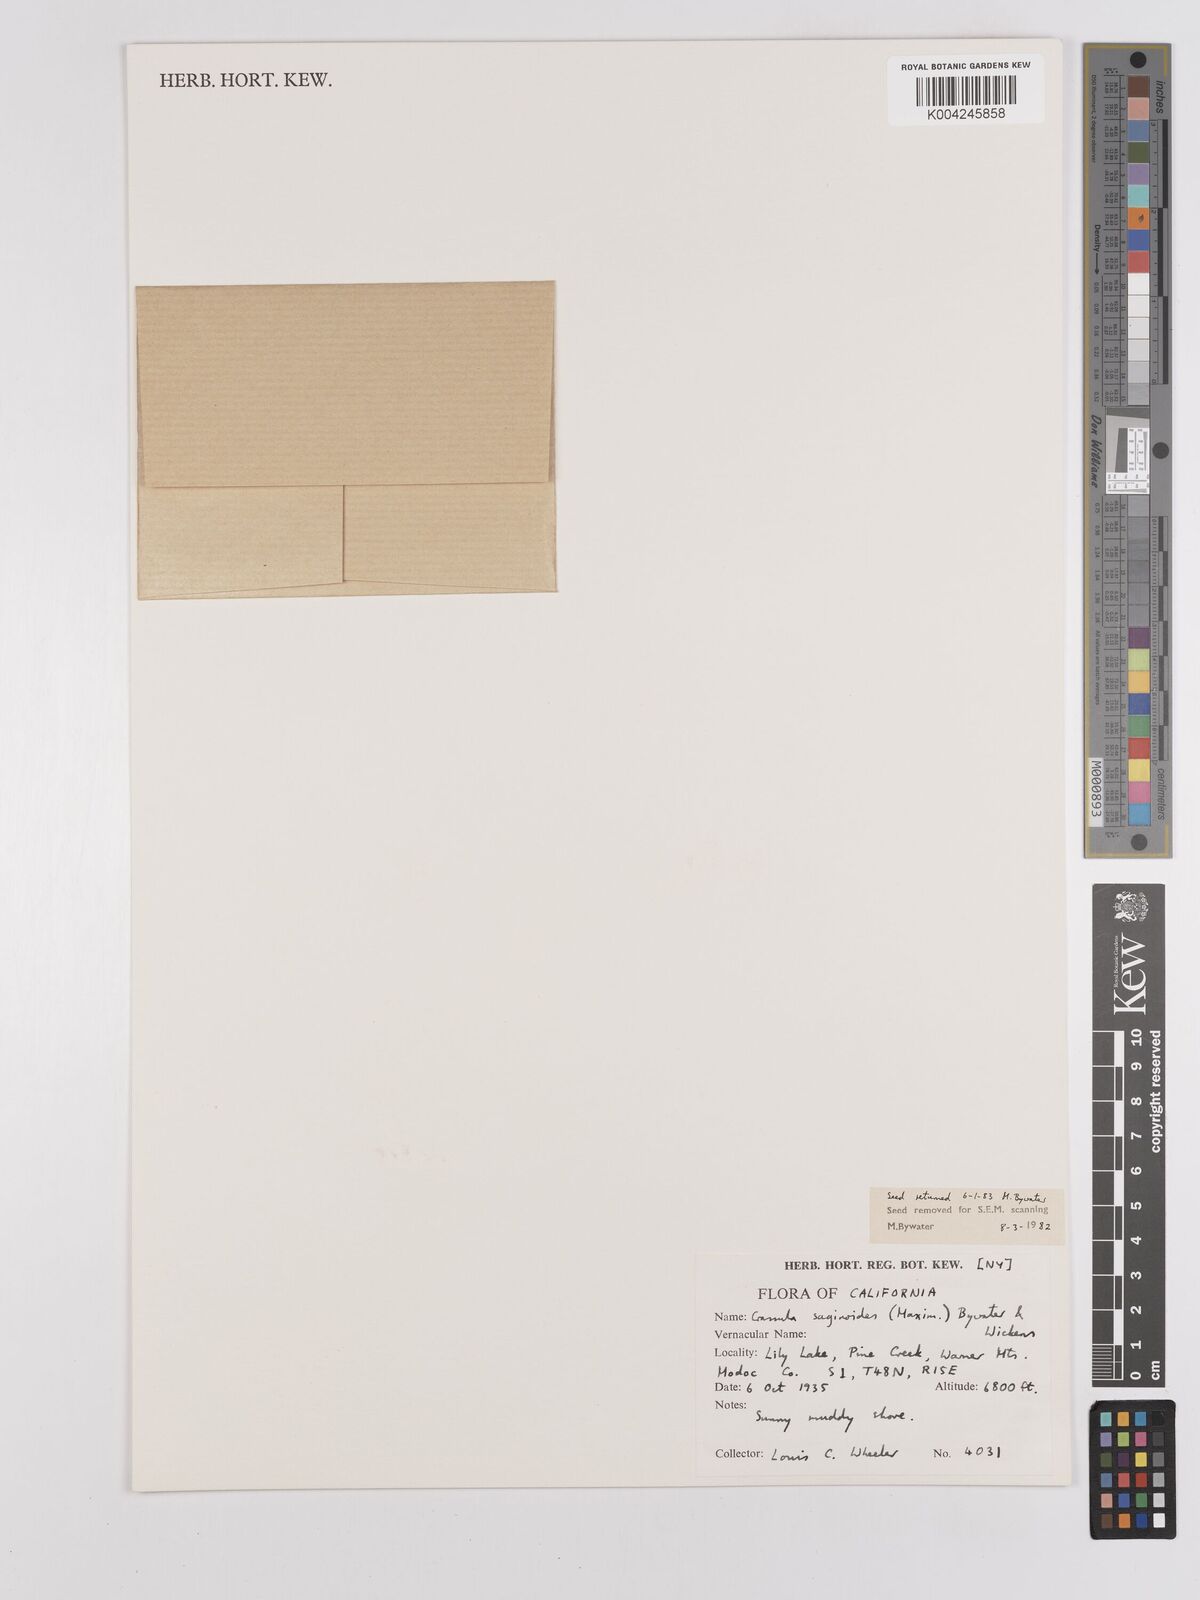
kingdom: Plantae
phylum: Tracheophyta
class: Magnoliopsida
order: Saxifragales
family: Crassulaceae
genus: Crassula
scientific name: Crassula saginoides
